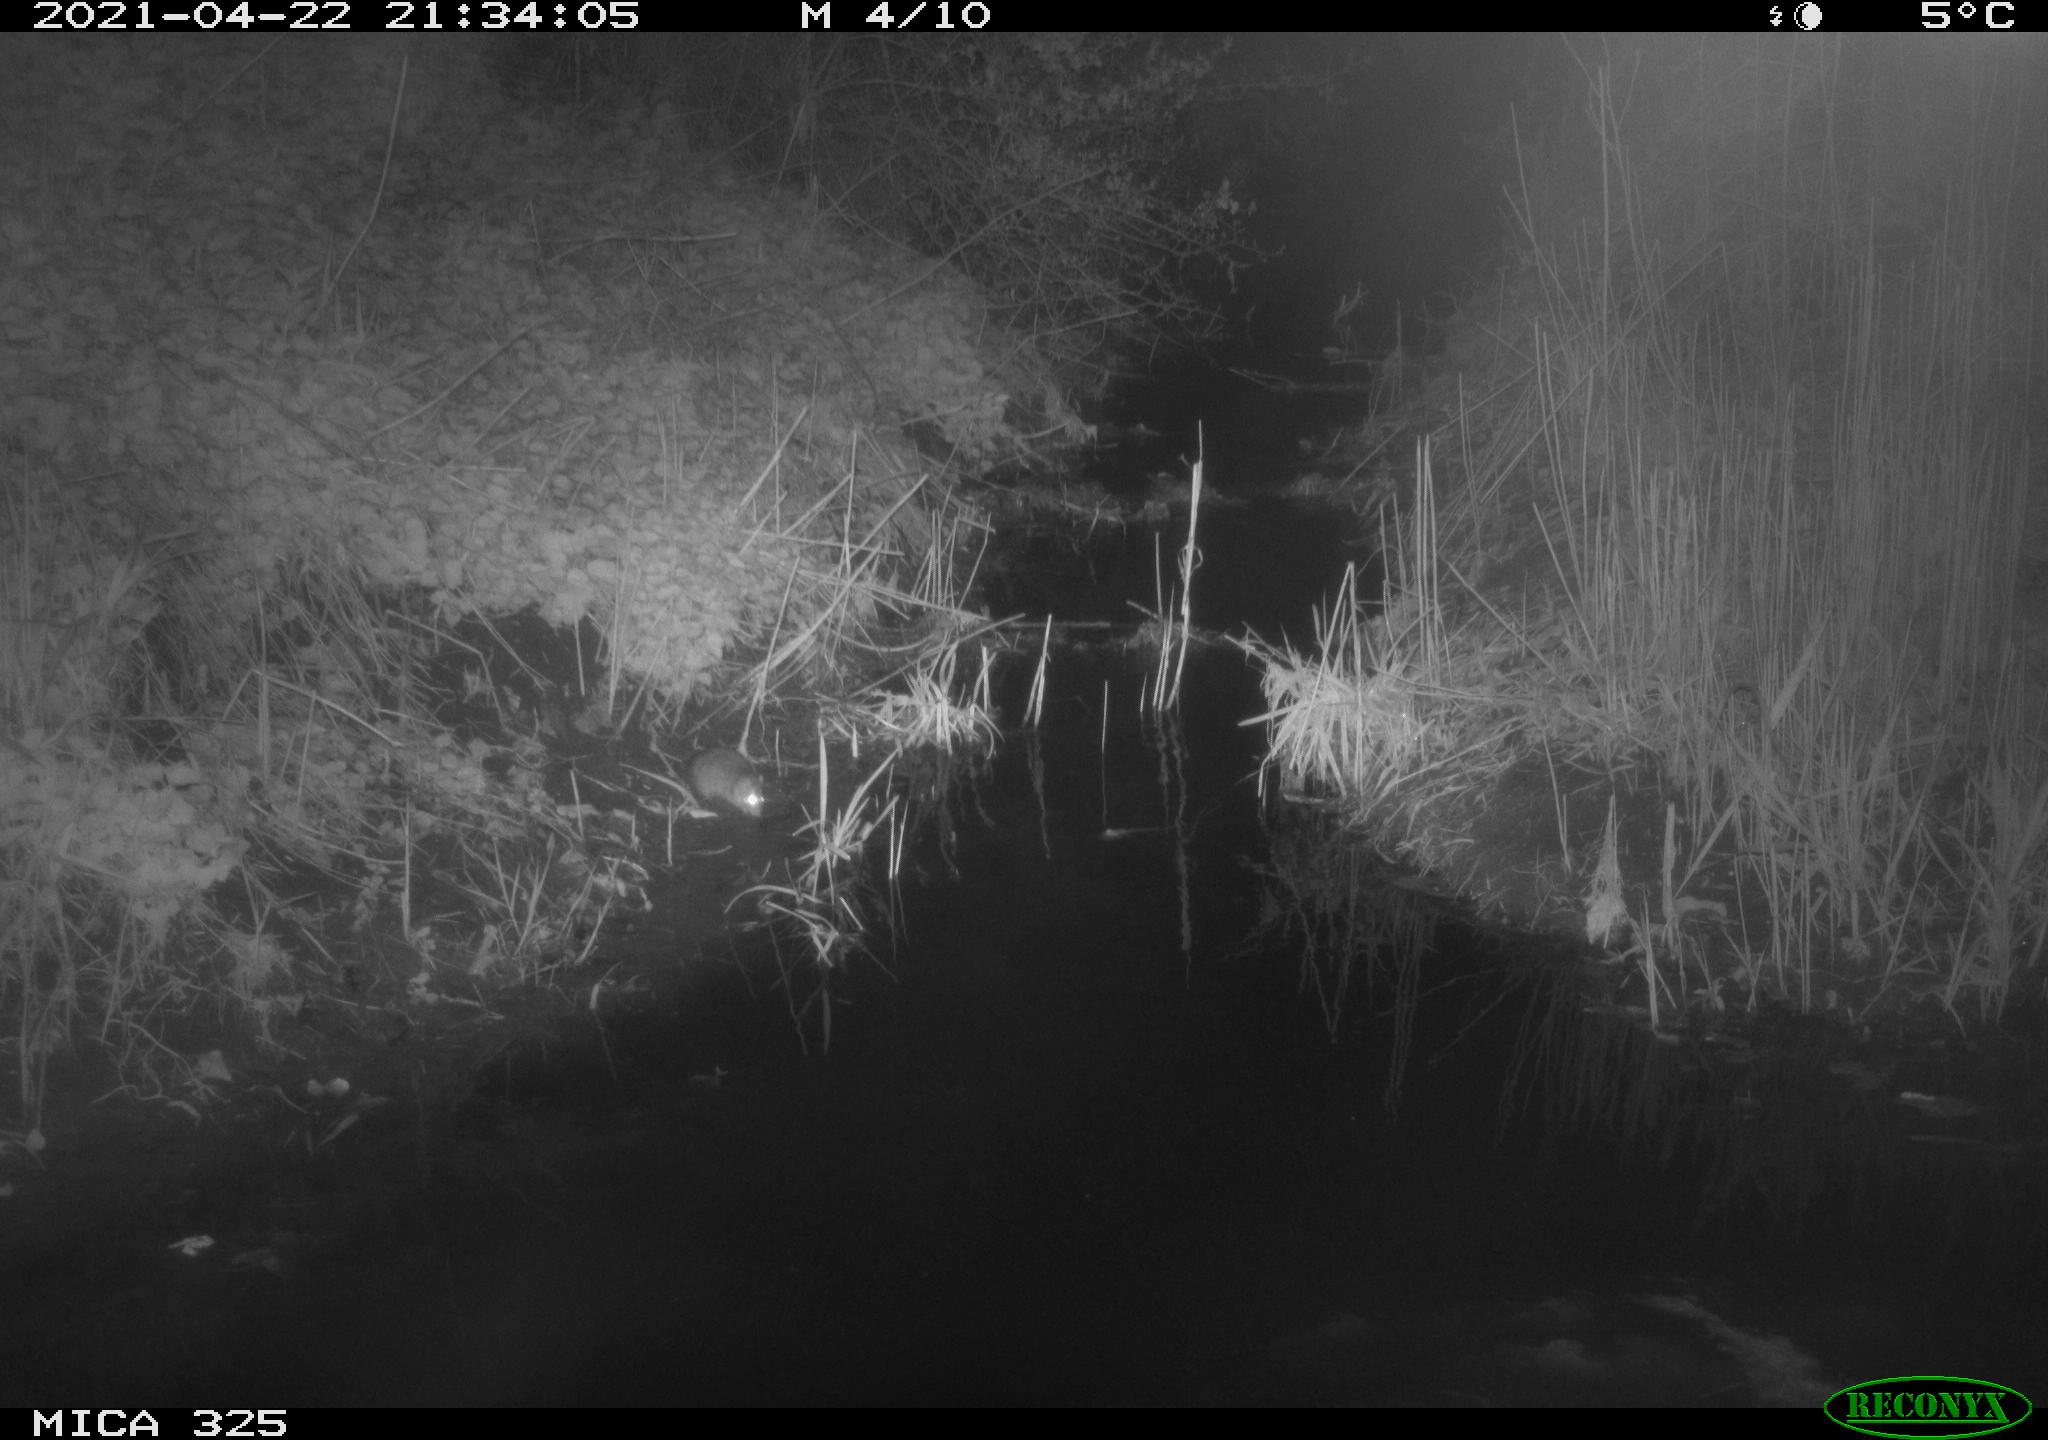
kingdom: Animalia
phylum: Chordata
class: Mammalia
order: Rodentia
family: Muridae
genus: Rattus
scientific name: Rattus norvegicus
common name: Brown rat
